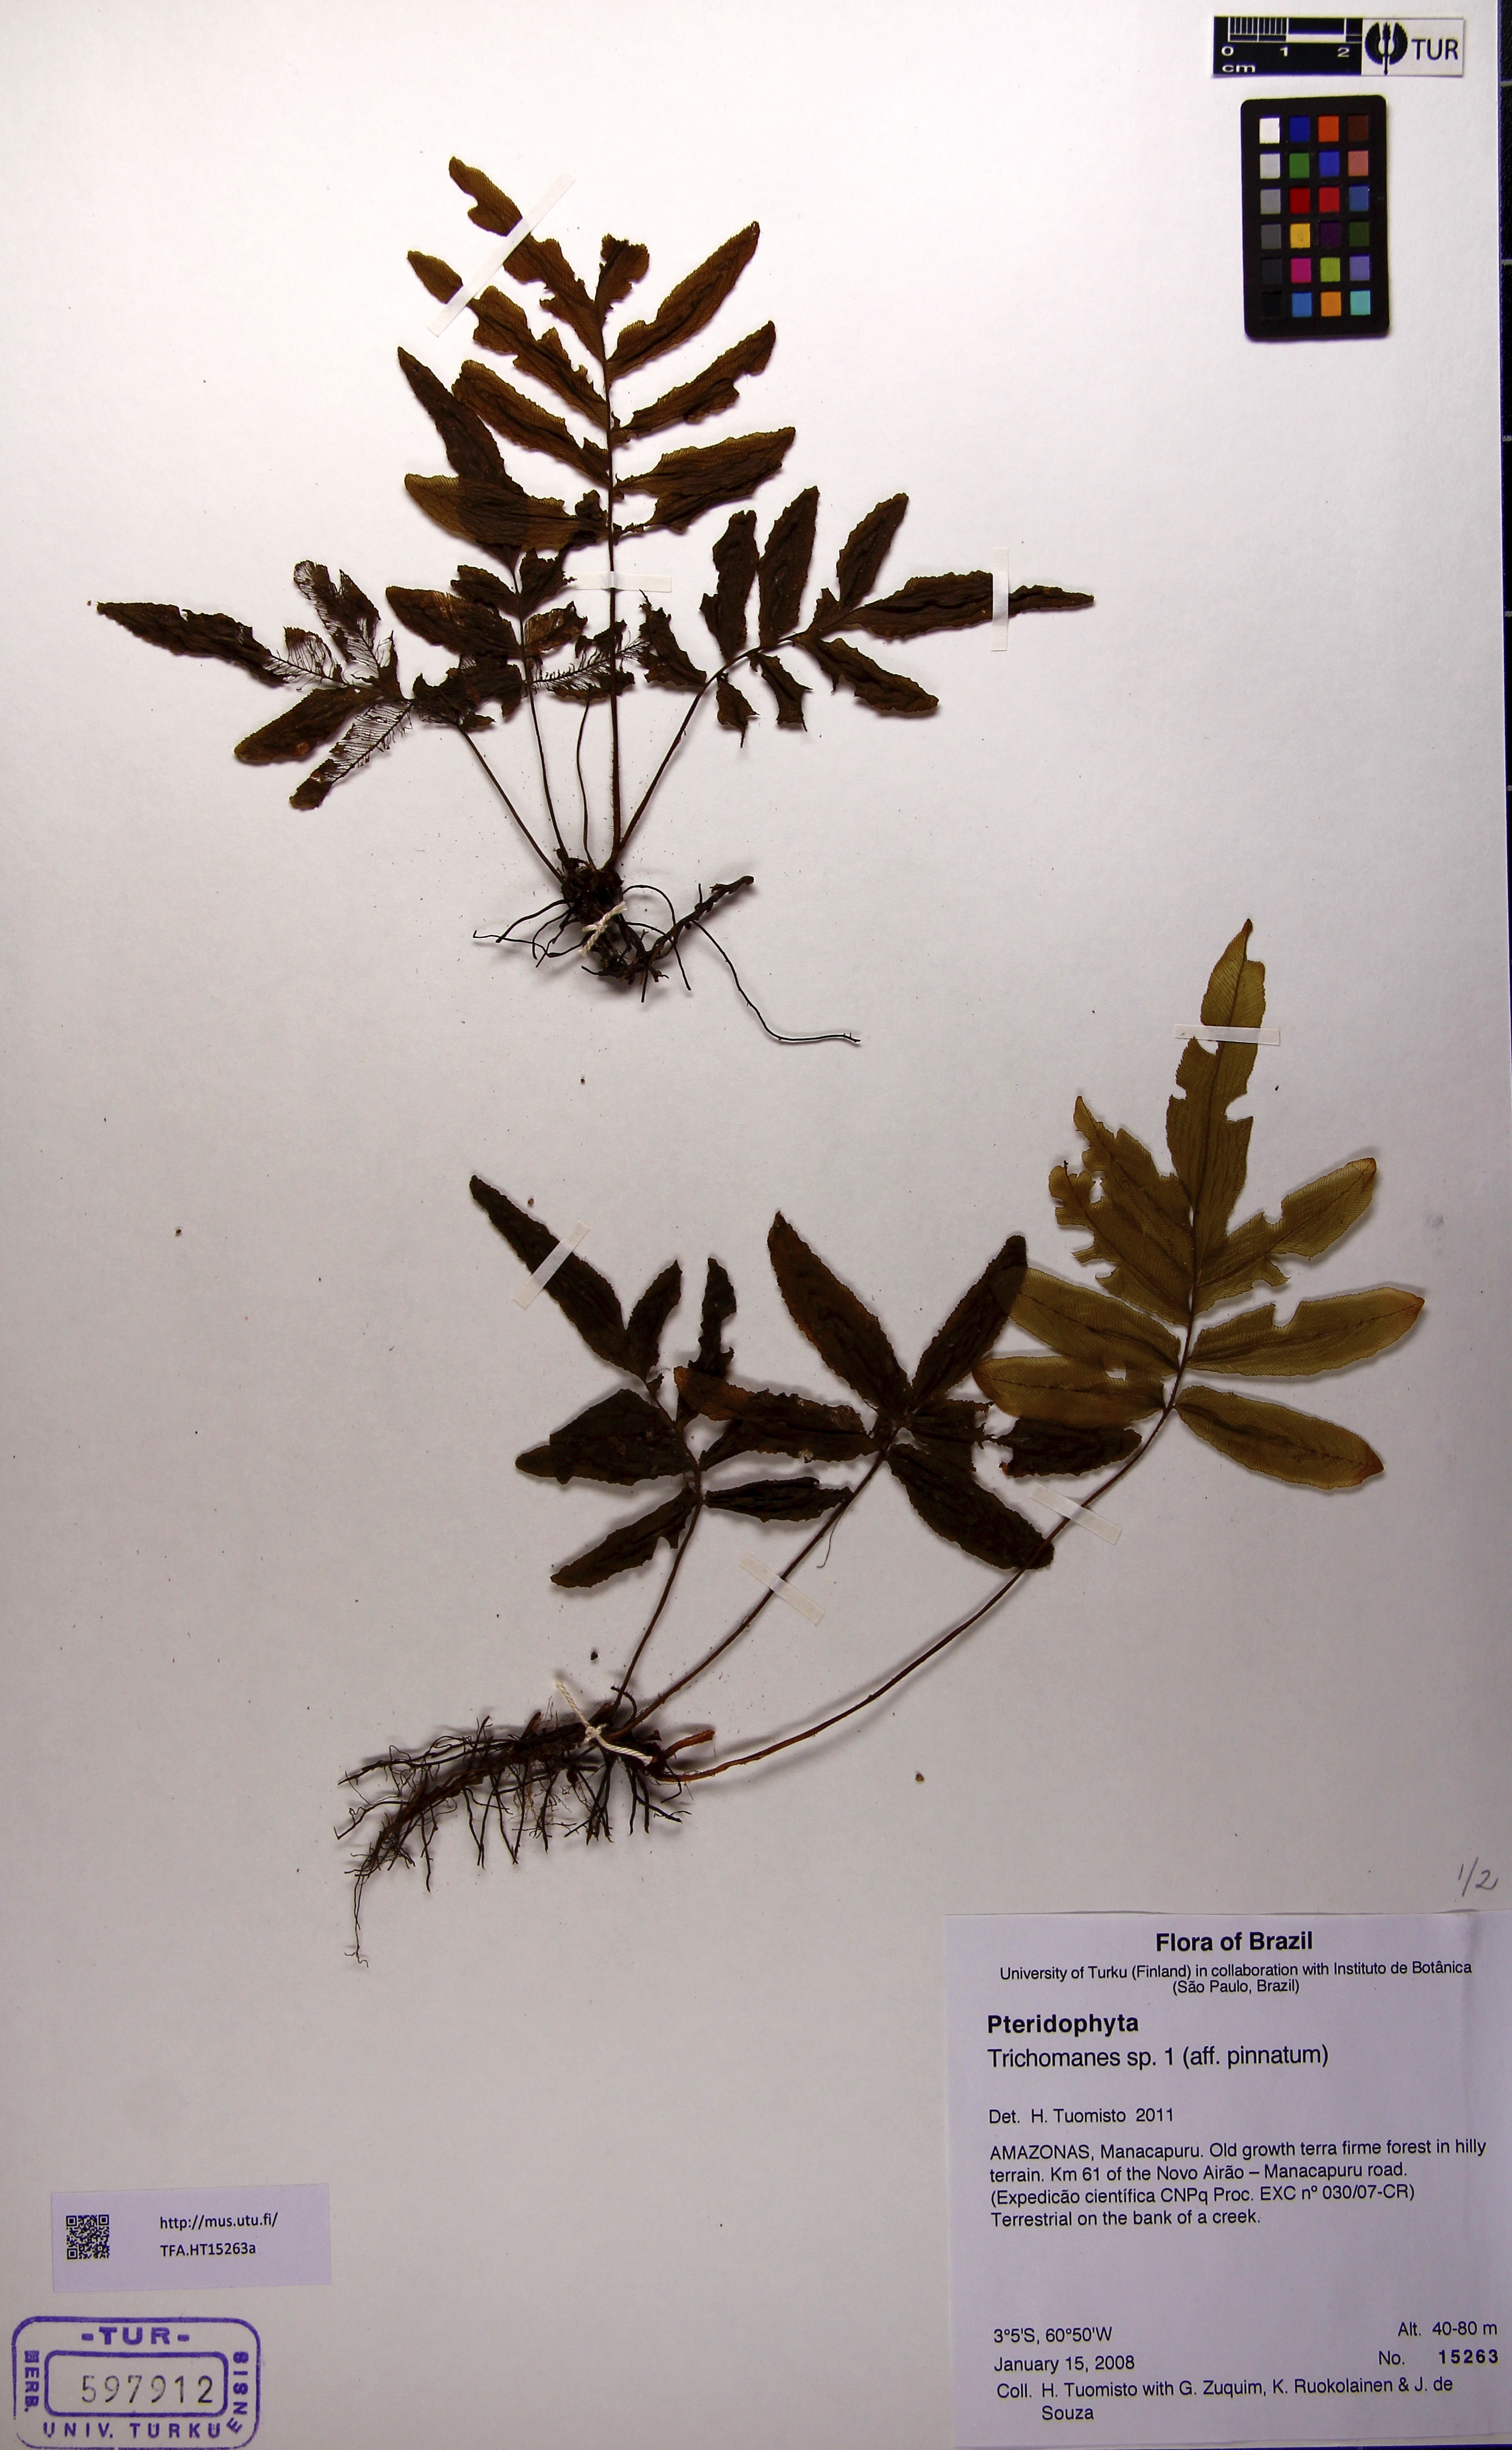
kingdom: Plantae
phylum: Tracheophyta
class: Polypodiopsida
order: Hymenophyllales
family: Hymenophyllaceae
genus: Trichomanes
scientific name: Trichomanes
